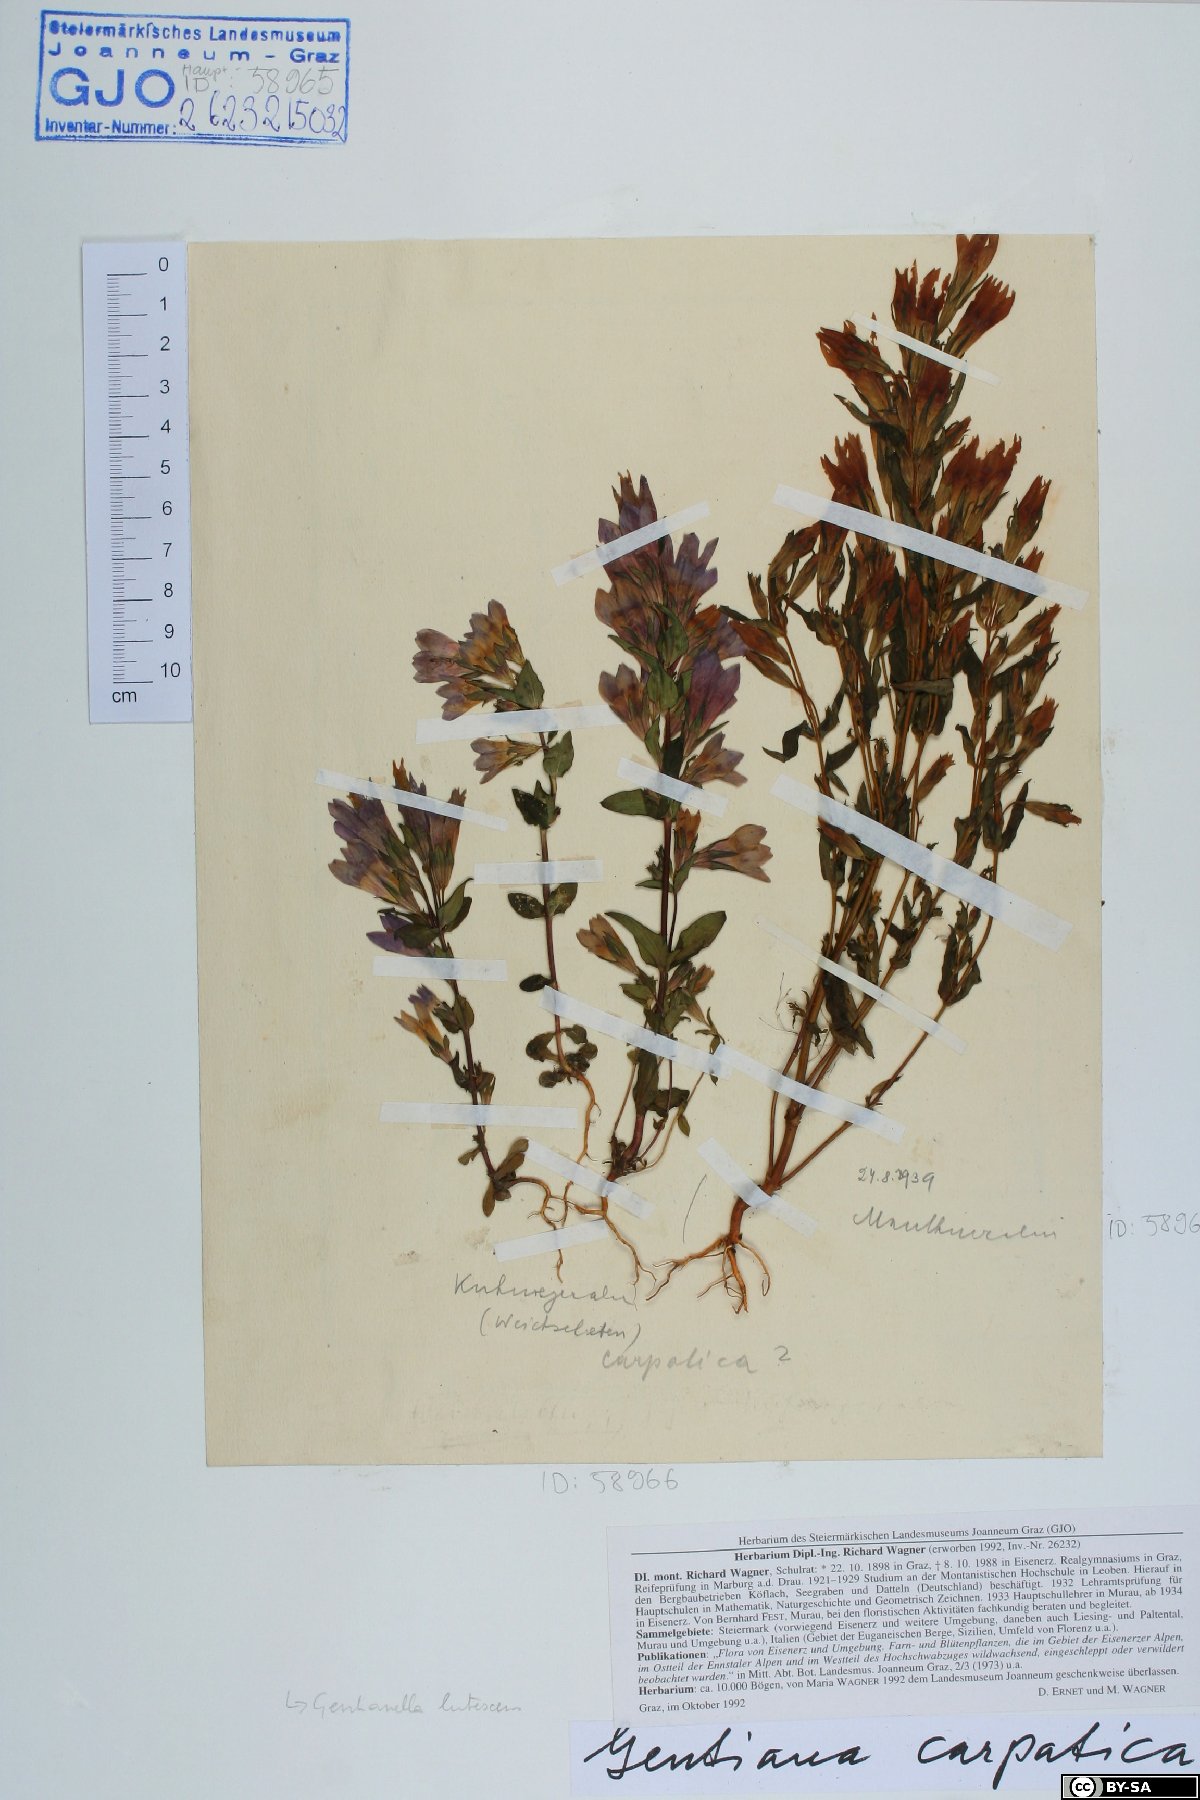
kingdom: Plantae
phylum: Tracheophyta
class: Magnoliopsida
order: Gentianales
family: Gentianaceae
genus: Gentianella
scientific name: Gentianella praecox
